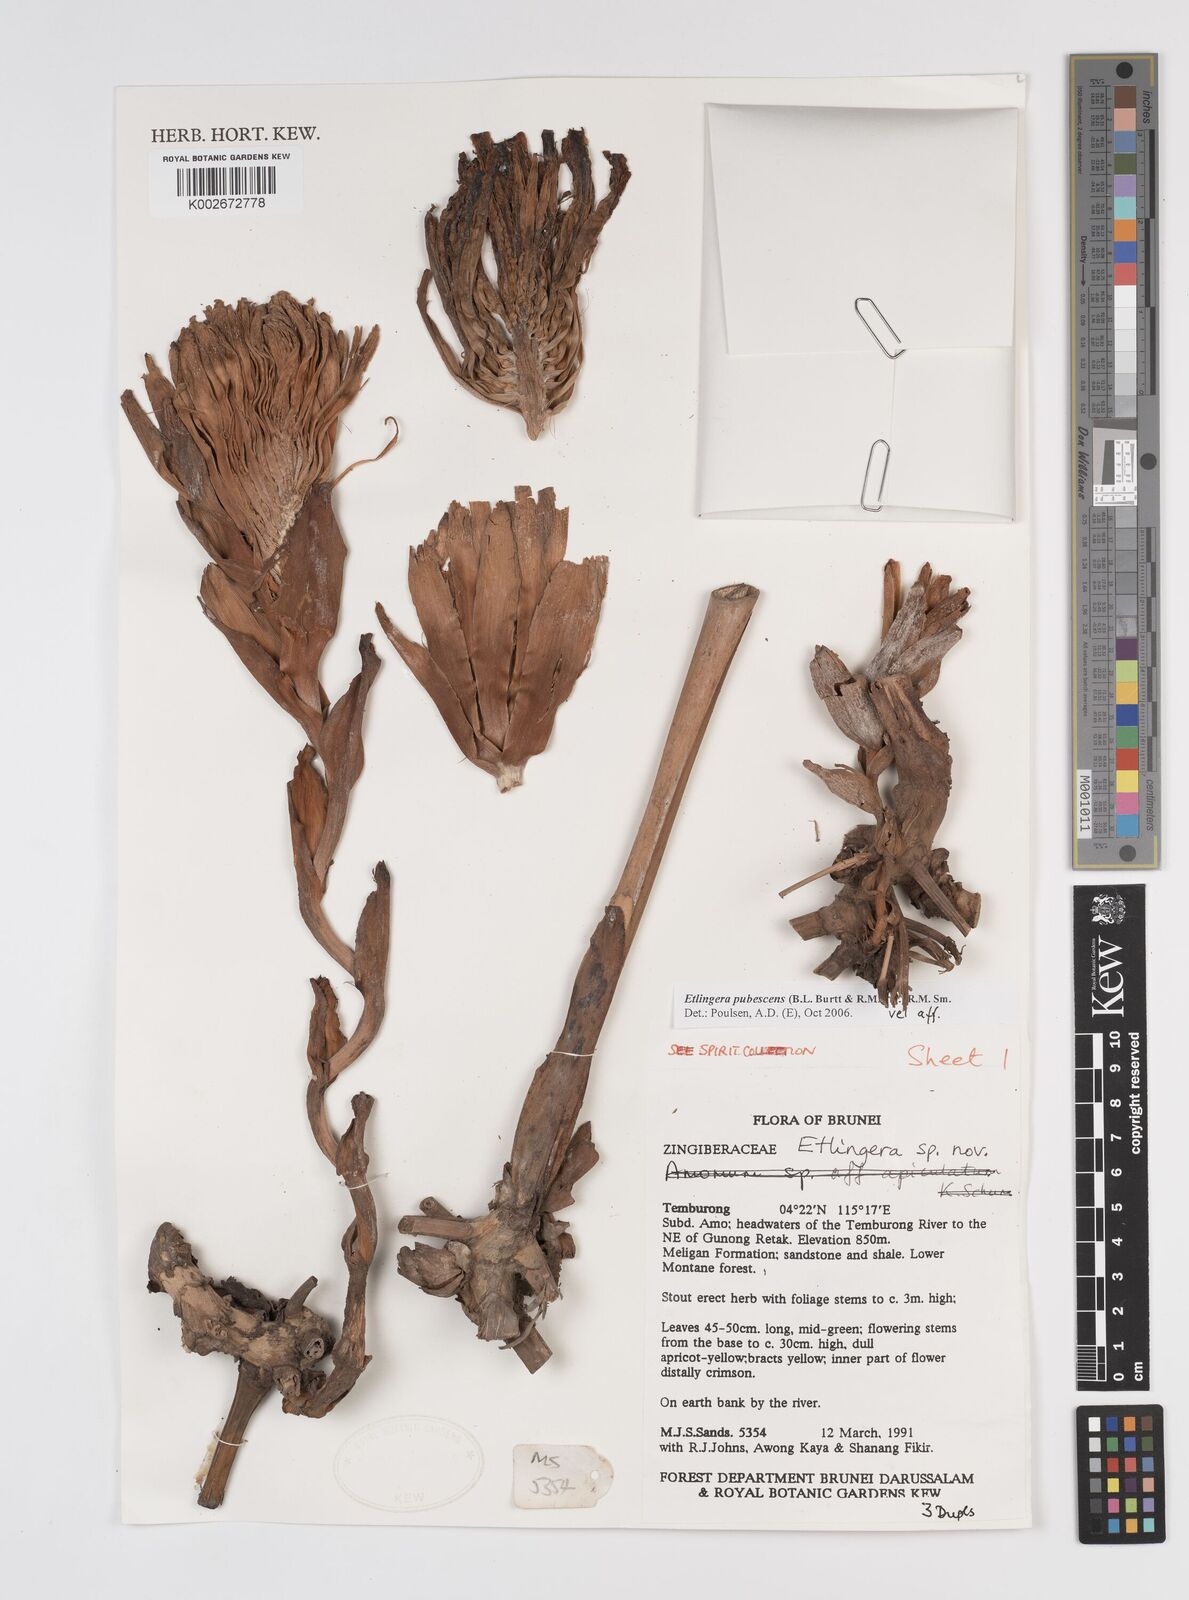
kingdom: Plantae
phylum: Tracheophyta
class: Liliopsida
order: Zingiberales
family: Zingiberaceae
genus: Etlingera
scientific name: Etlingera pubescens
